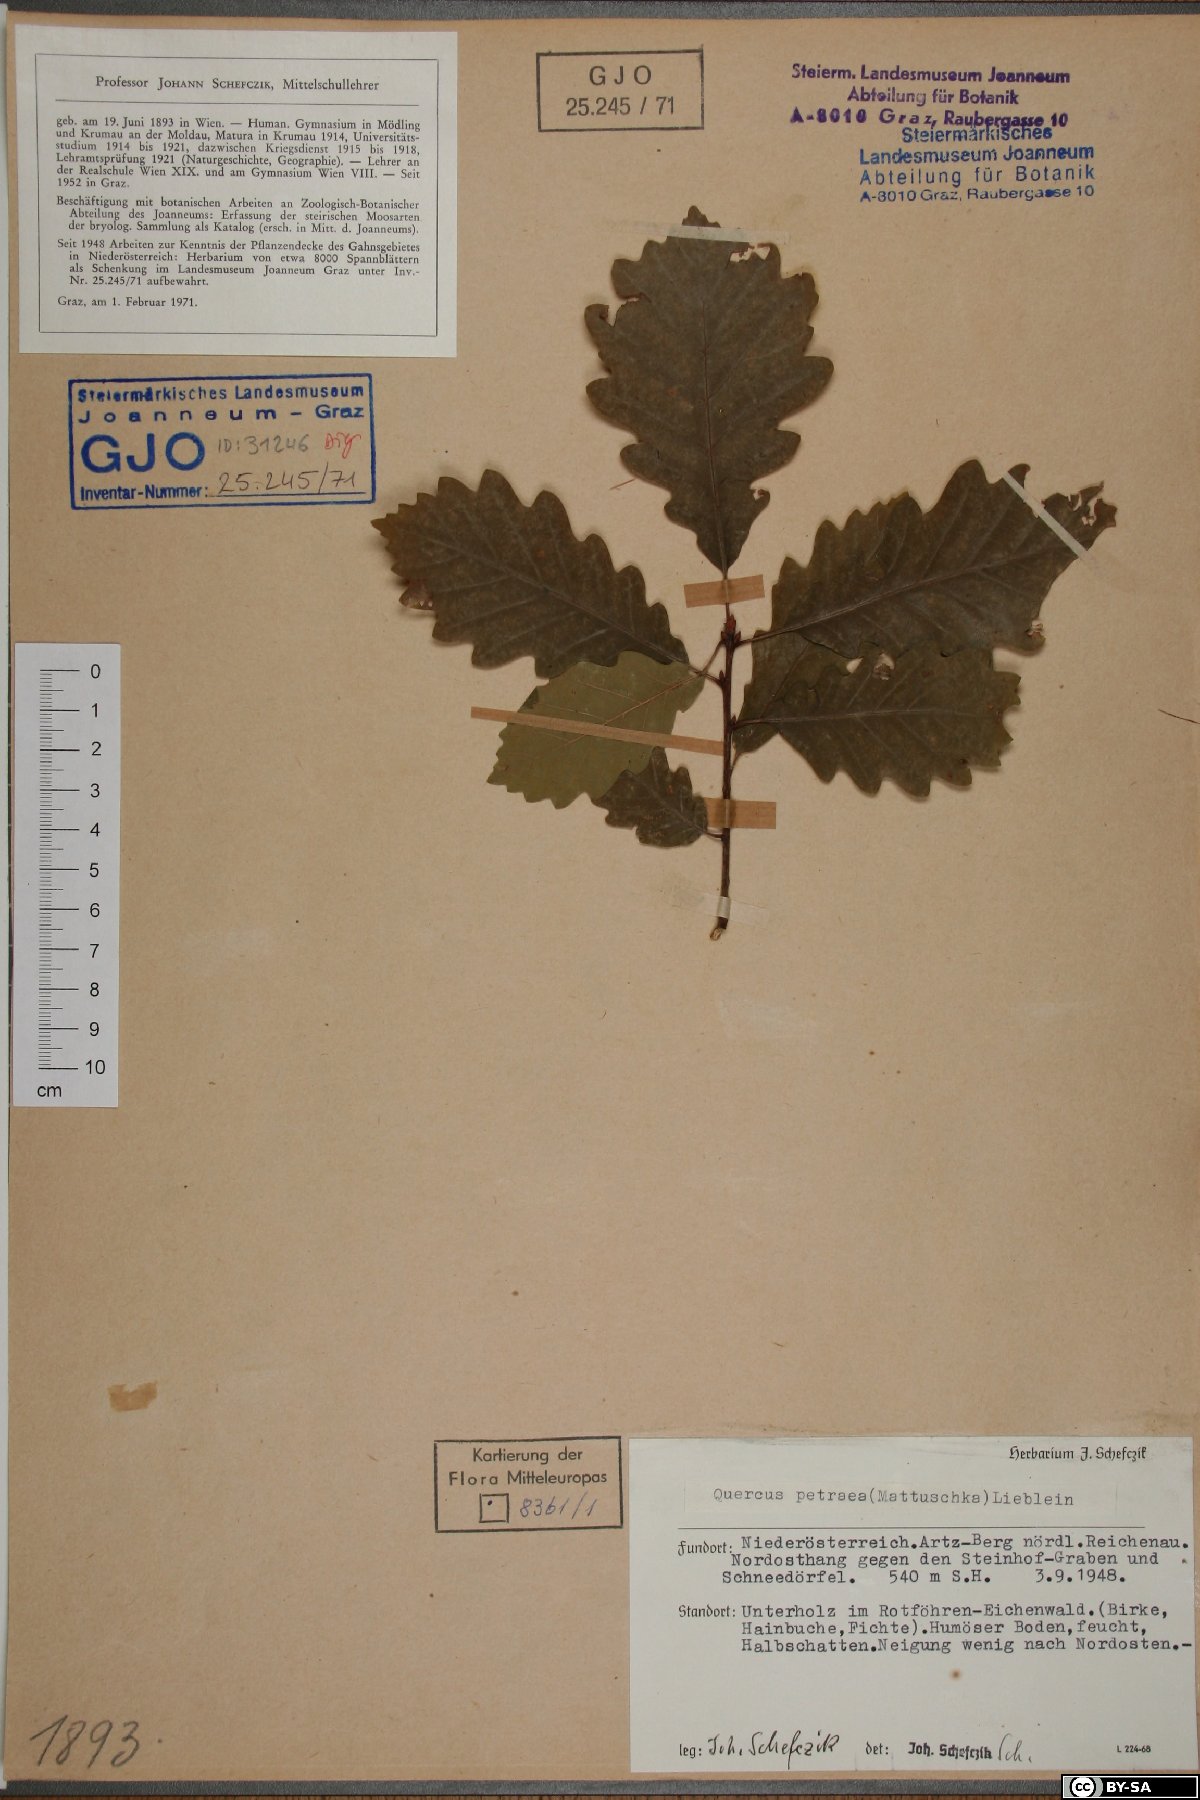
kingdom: Plantae
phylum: Tracheophyta
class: Magnoliopsida
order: Fagales
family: Fagaceae
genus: Quercus
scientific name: Quercus petraea
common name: Sessile oak
